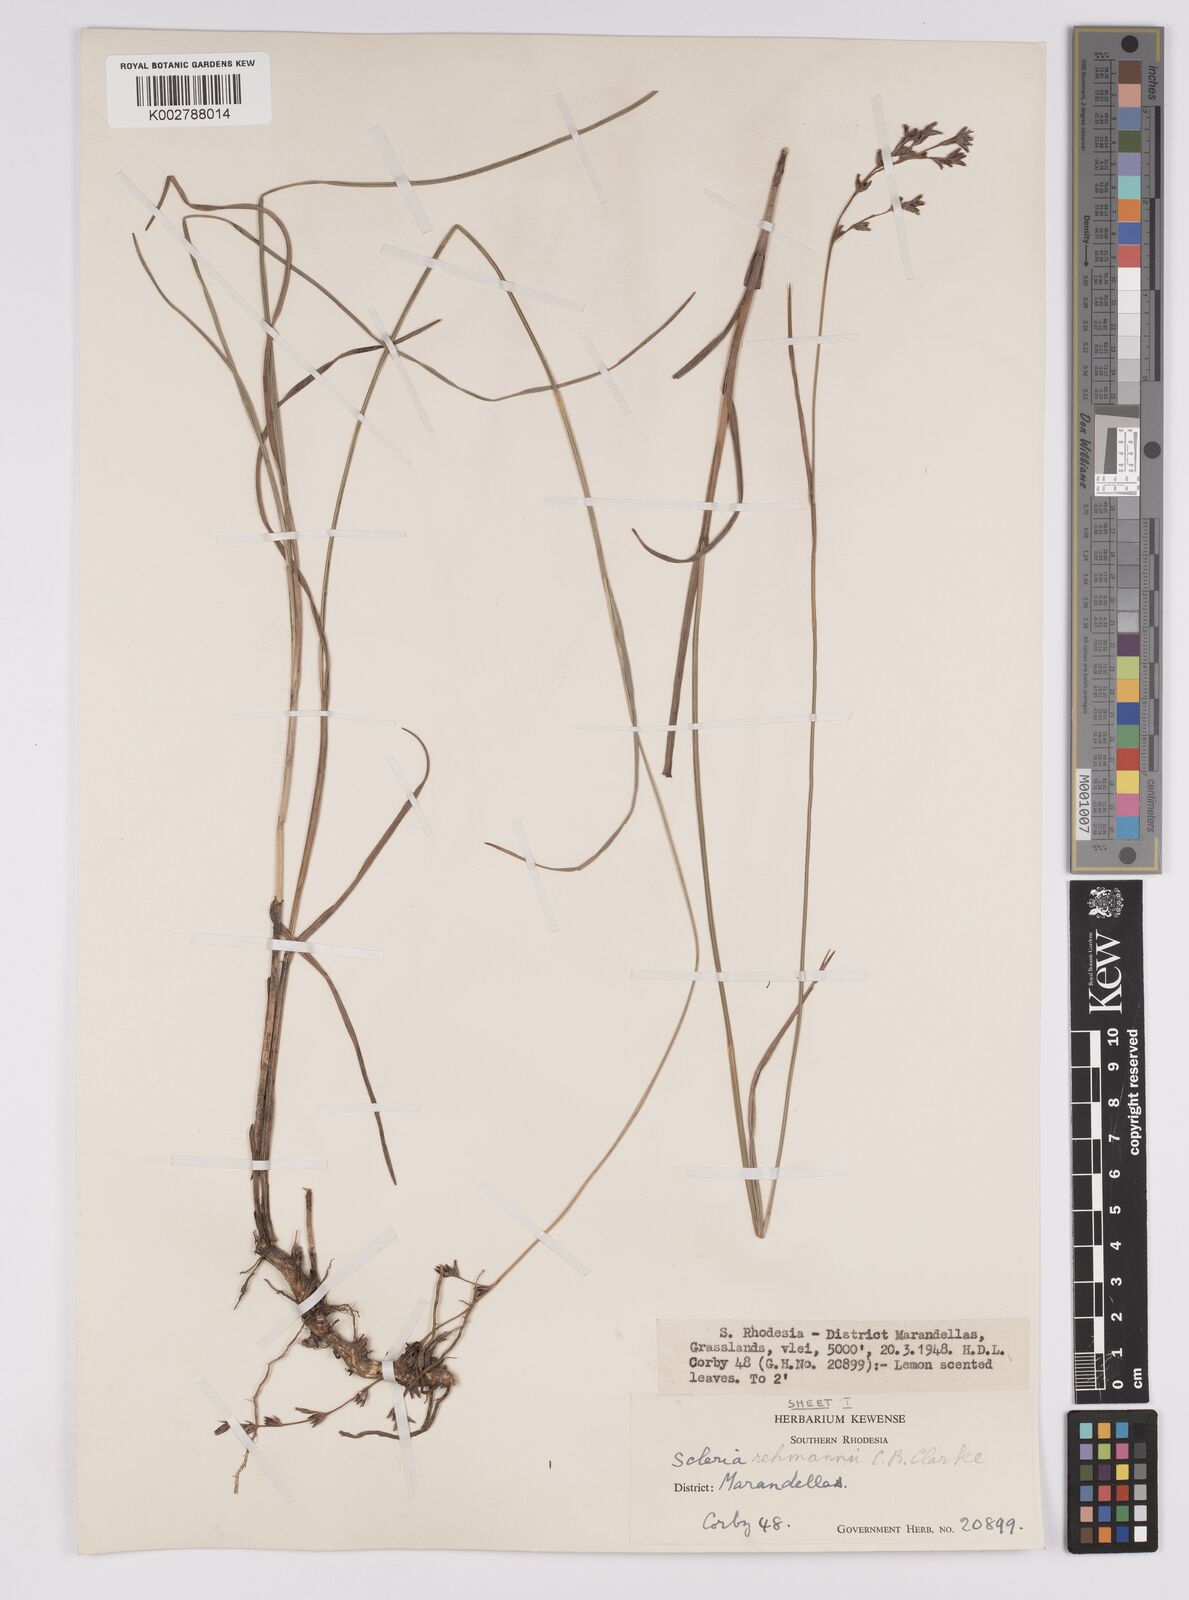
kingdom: Plantae
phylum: Tracheophyta
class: Liliopsida
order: Poales
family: Cyperaceae
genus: Scleria
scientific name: Scleria rehmannii
